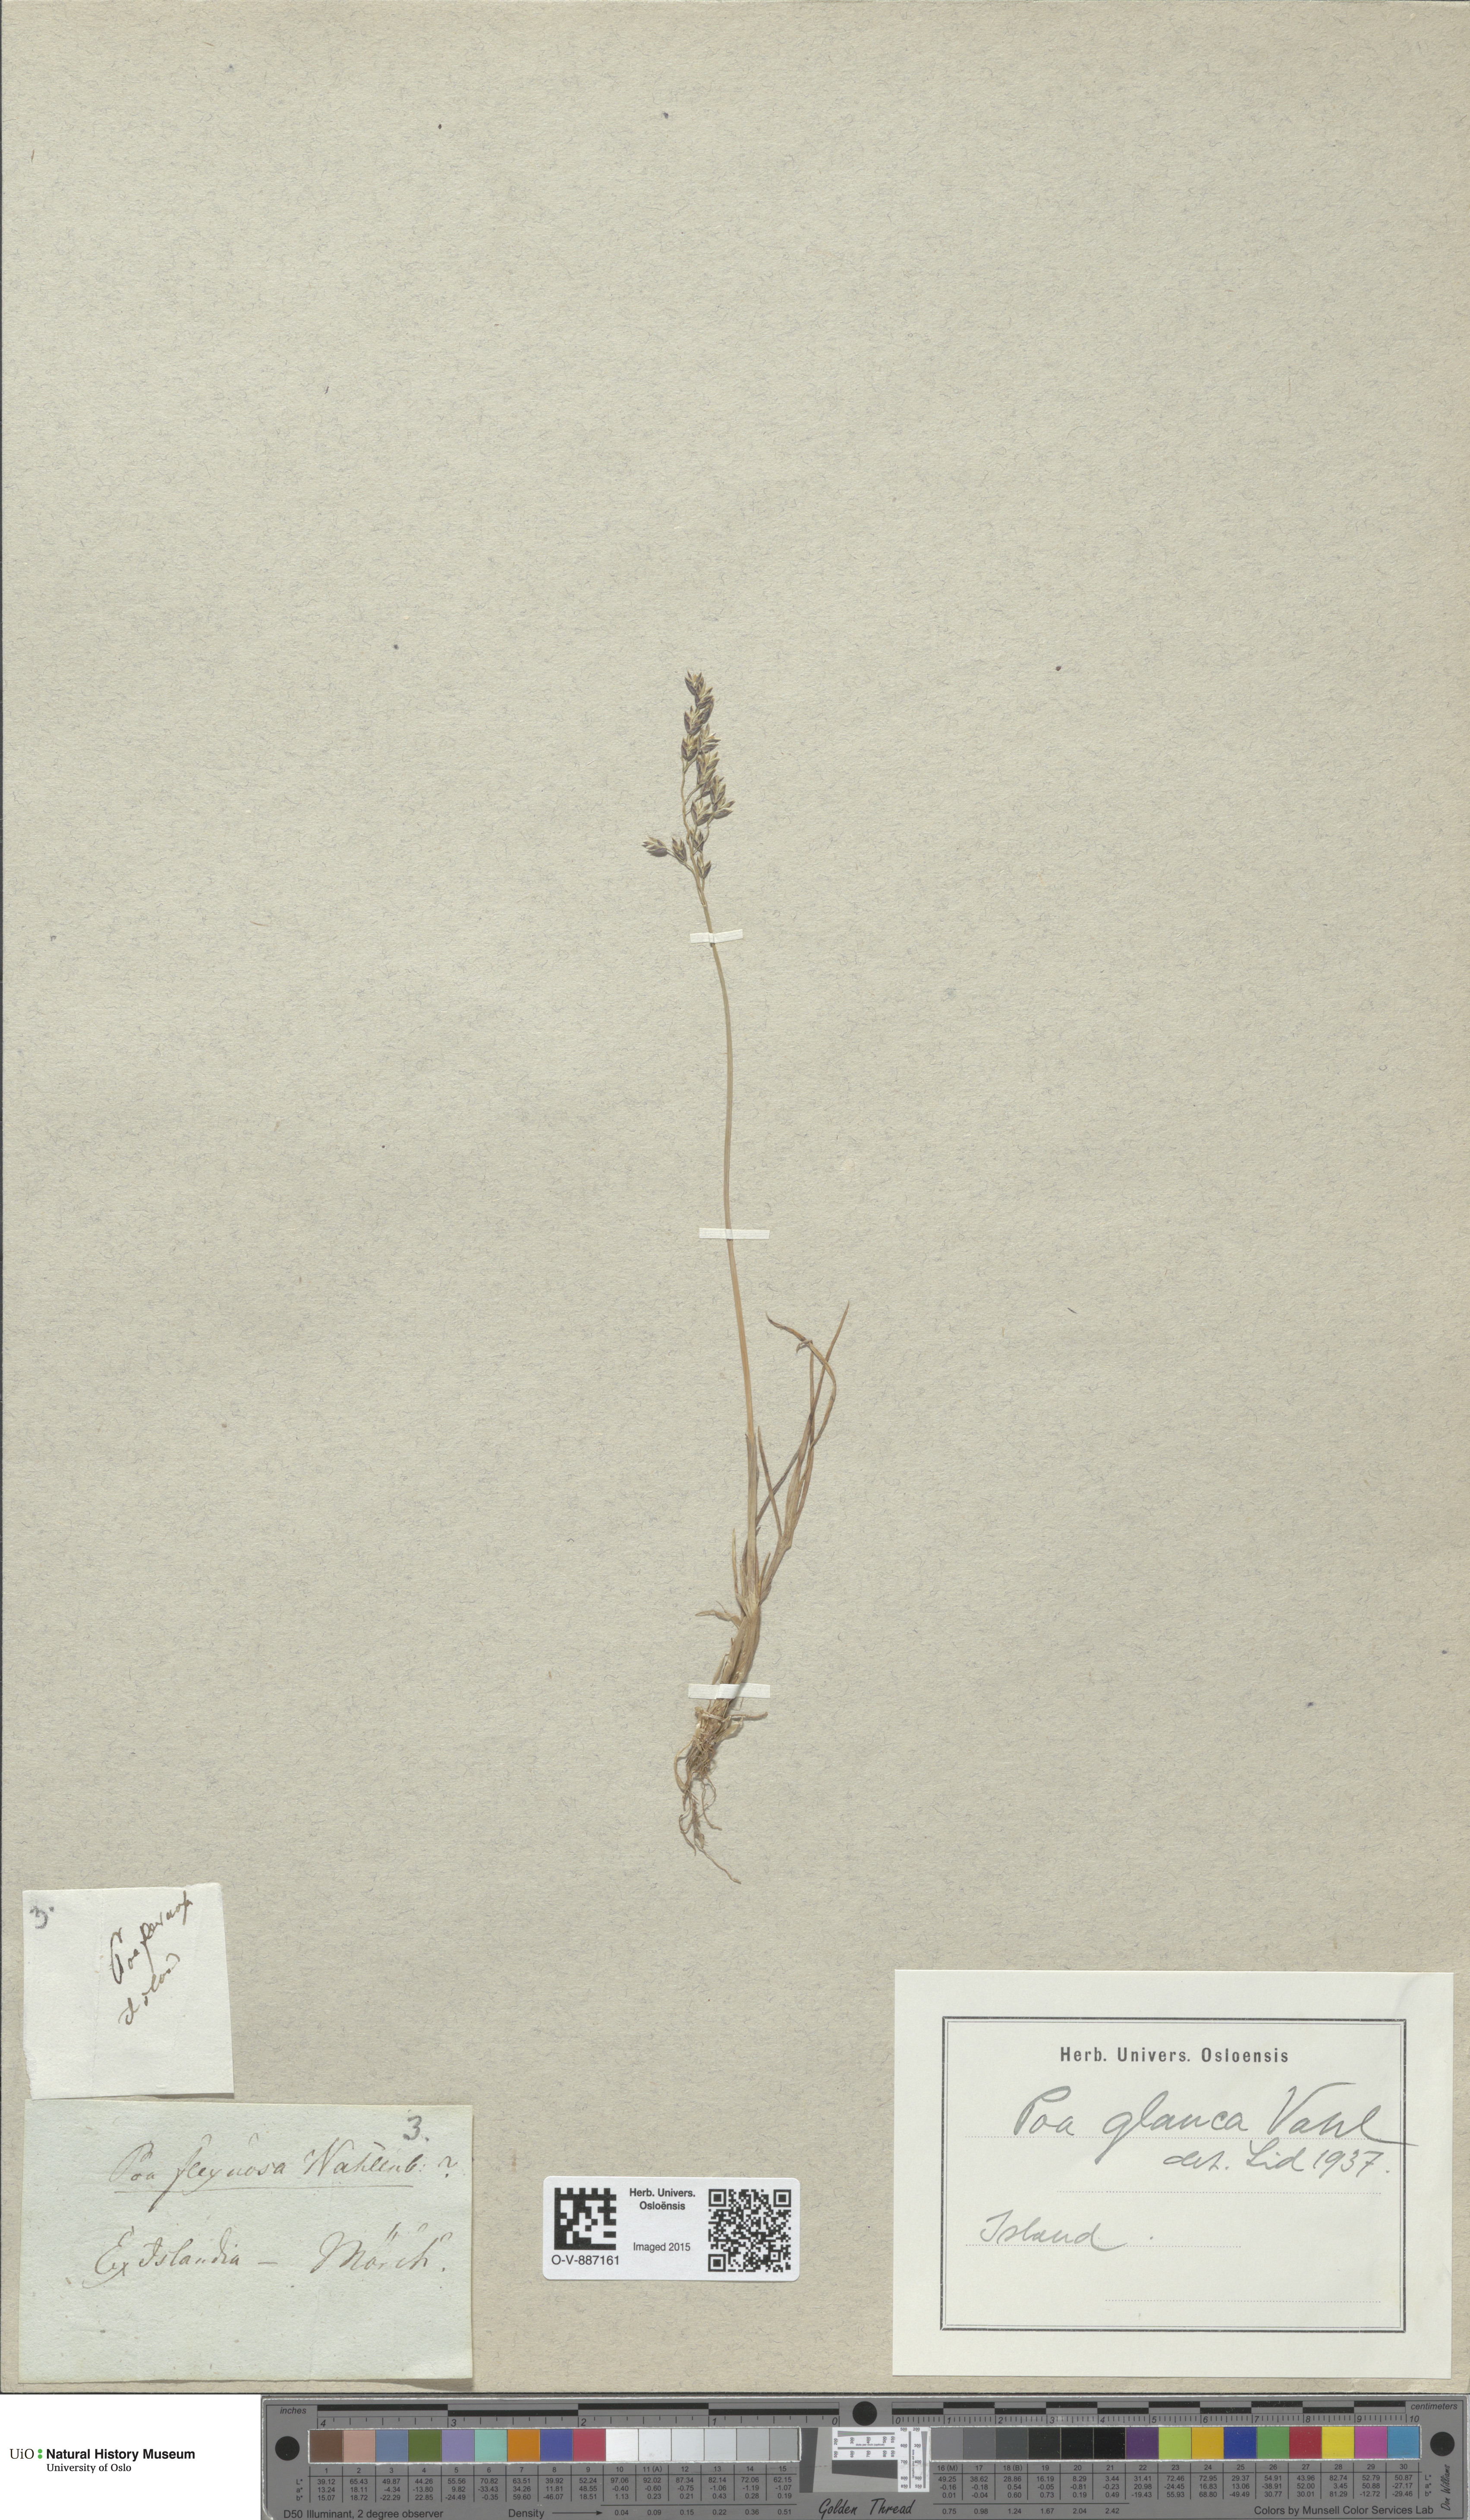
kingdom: Plantae
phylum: Tracheophyta
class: Liliopsida
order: Poales
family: Poaceae
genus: Poa
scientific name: Poa glauca
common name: Glaucous bluegrass
